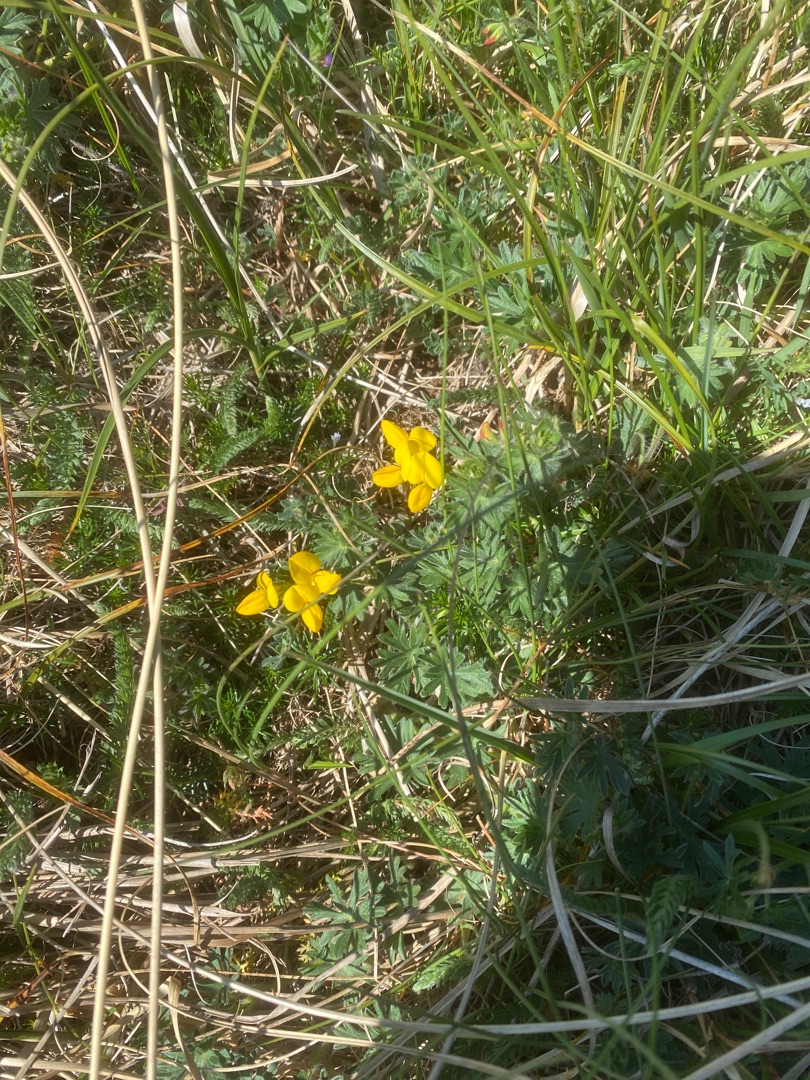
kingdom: Plantae
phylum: Tracheophyta
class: Magnoliopsida
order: Fabales
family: Fabaceae
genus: Lotus
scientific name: Lotus corniculatus
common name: Almindelig kællingetand
